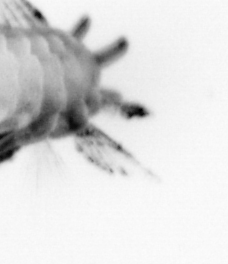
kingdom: Animalia
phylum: Annelida
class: Polychaeta
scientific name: Polychaeta
